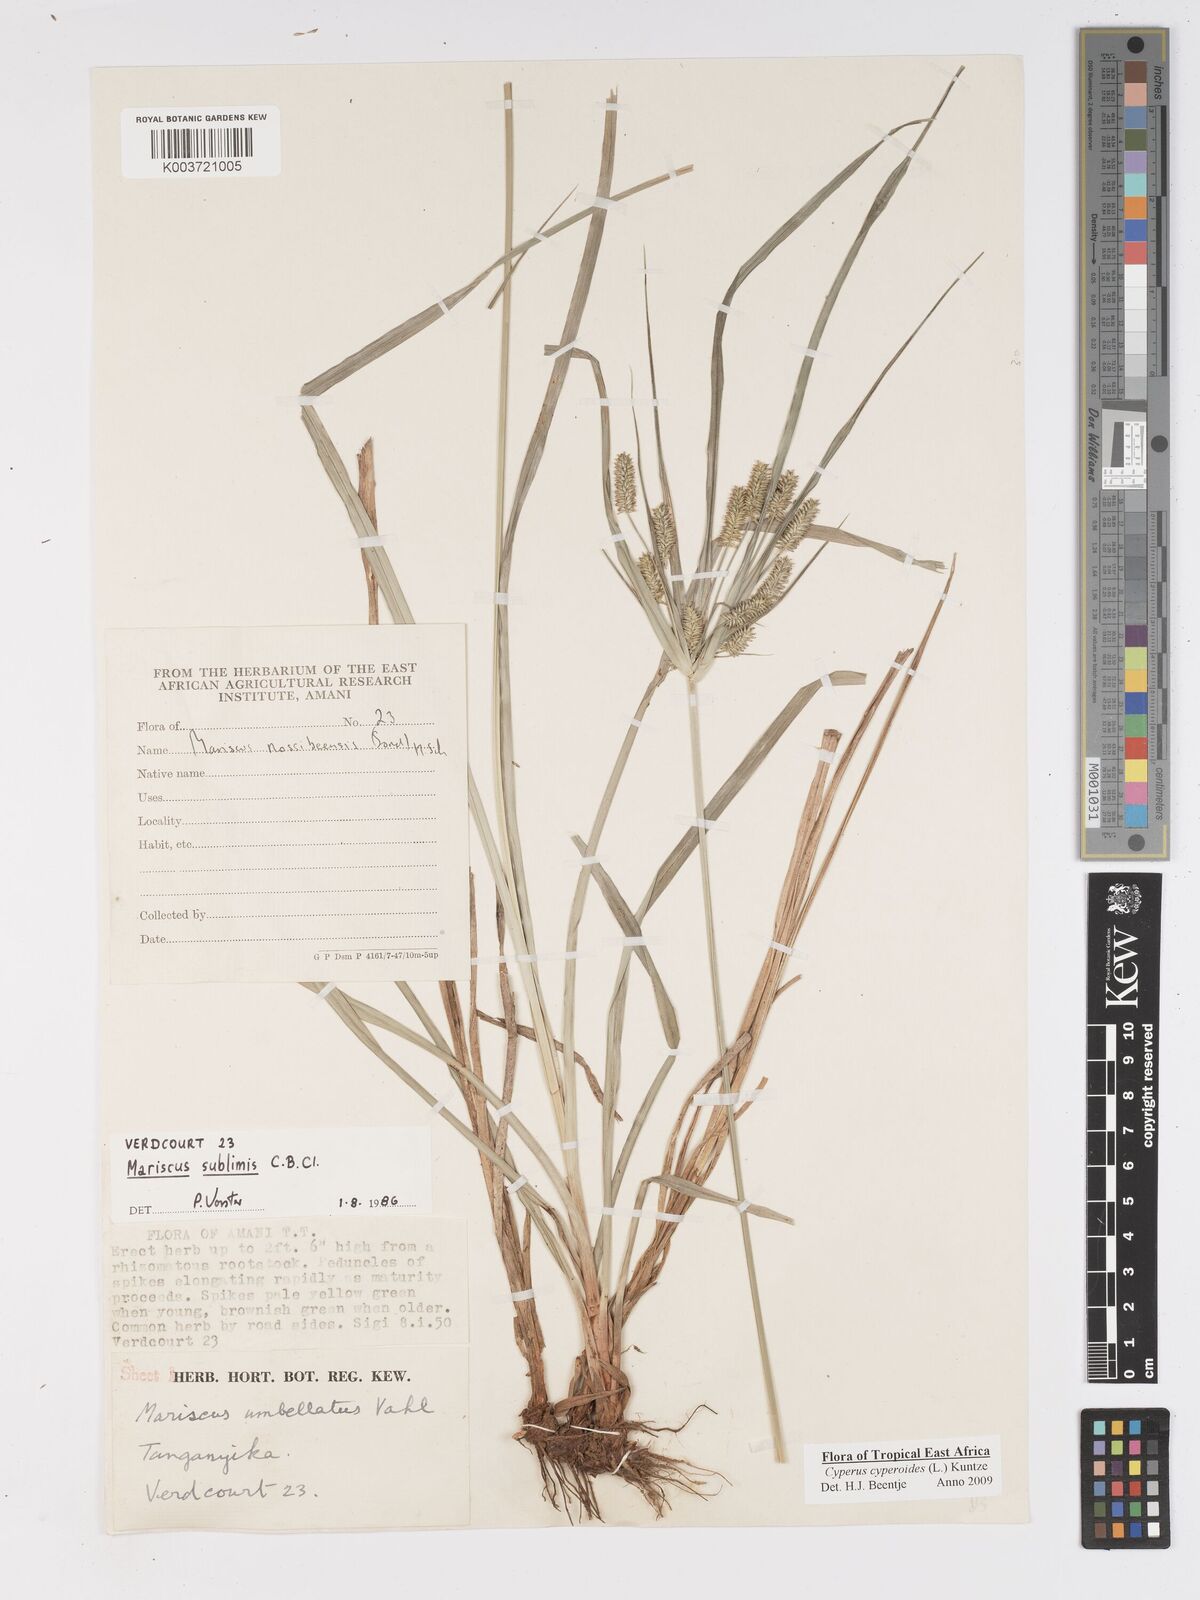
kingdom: Plantae
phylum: Tracheophyta
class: Liliopsida
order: Poales
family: Cyperaceae
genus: Cyperus
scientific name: Cyperus
